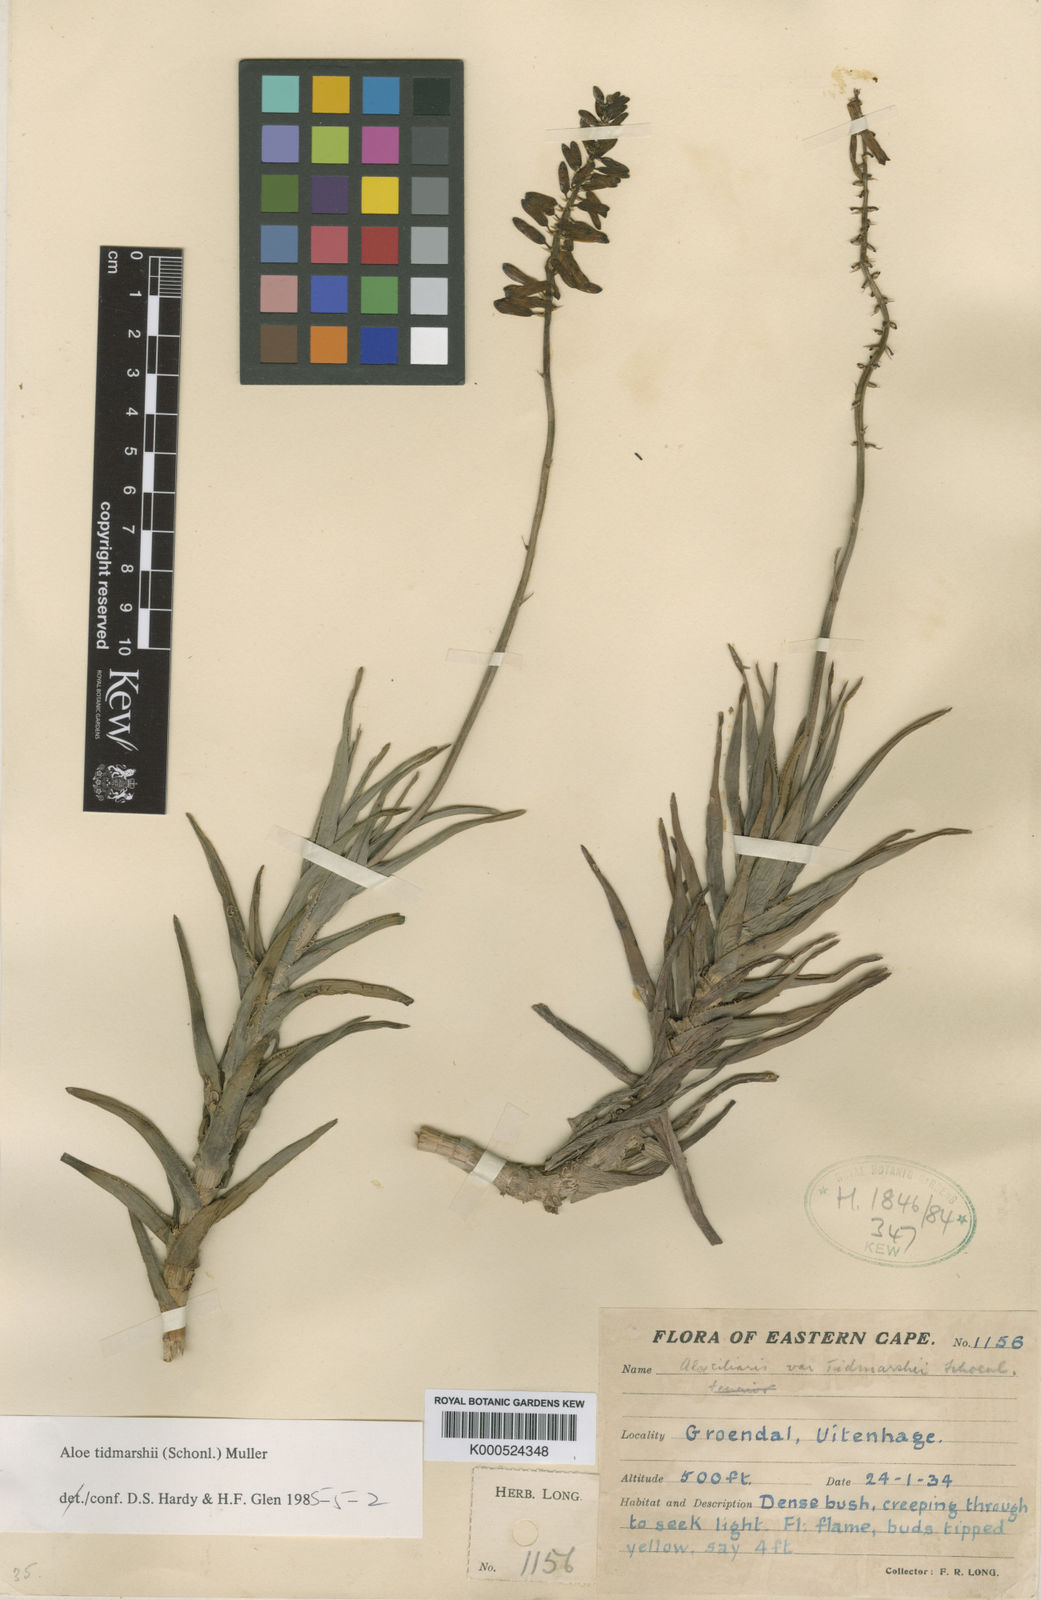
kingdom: Plantae
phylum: Tracheophyta
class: Liliopsida
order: Asparagales
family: Asphodelaceae
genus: Aloe
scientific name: Aloe
